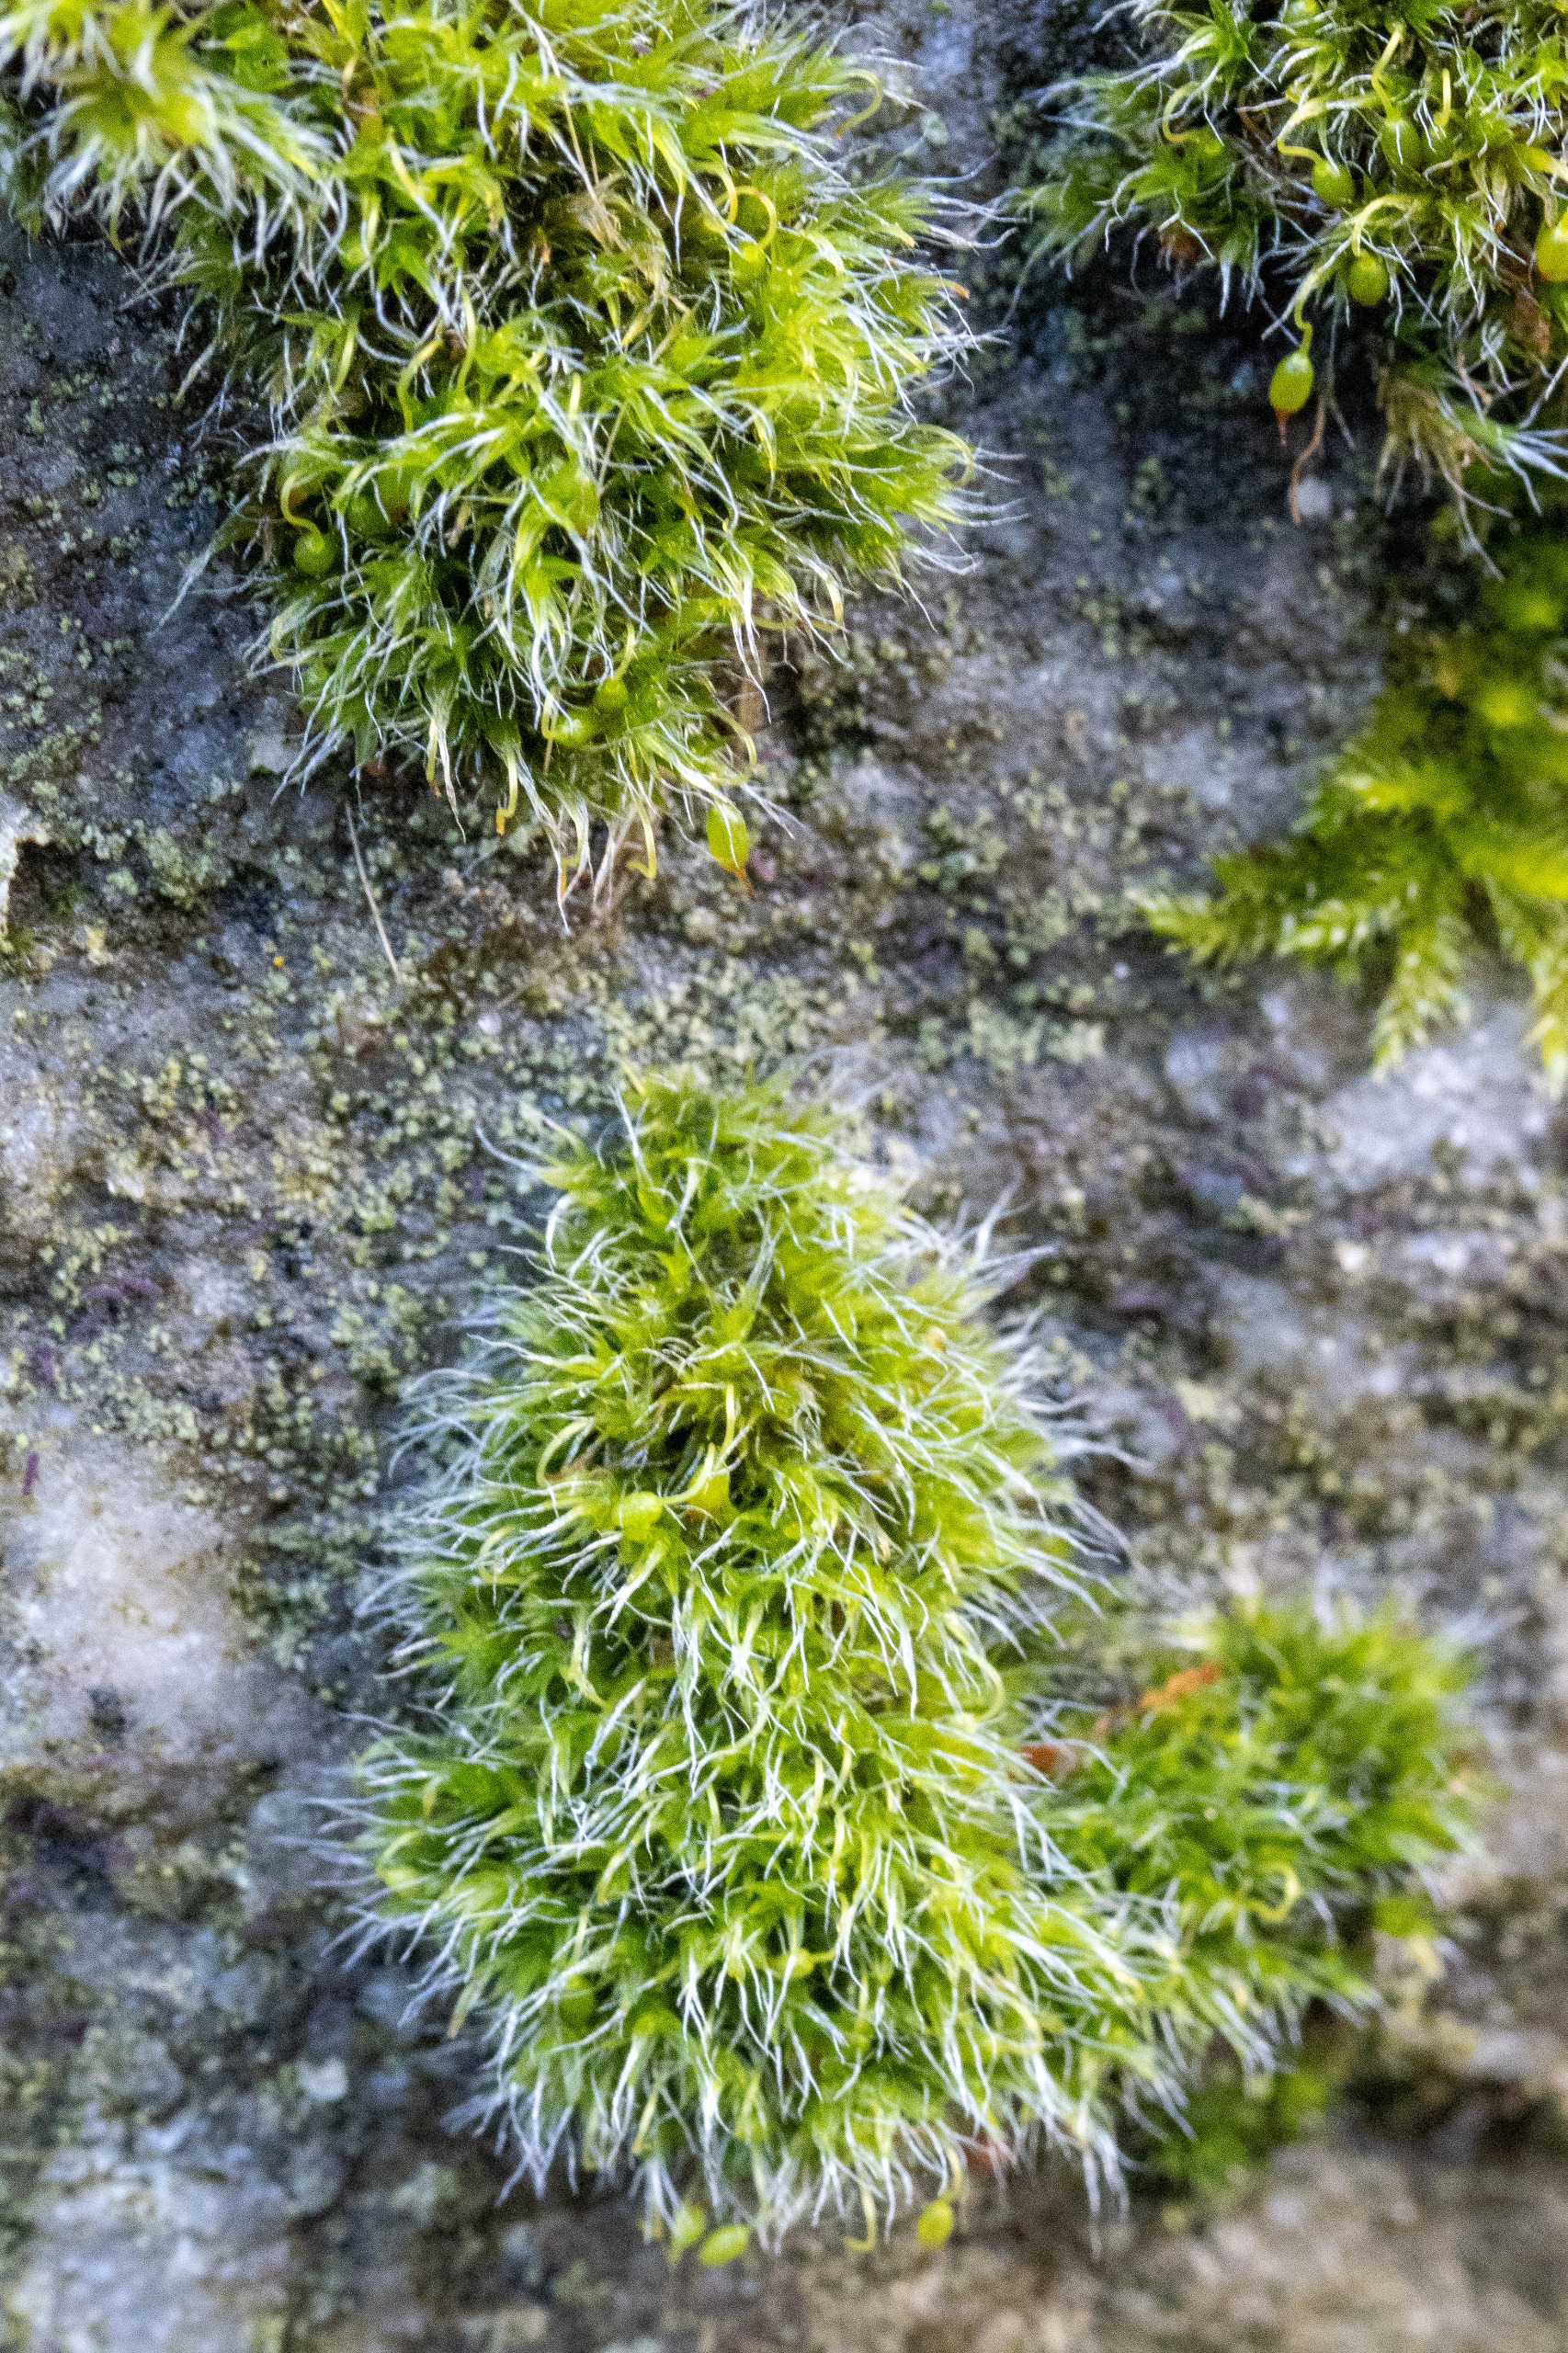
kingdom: Plantae
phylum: Bryophyta
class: Bryopsida
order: Grimmiales
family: Grimmiaceae
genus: Grimmia
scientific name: Grimmia pulvinata
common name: Pude-gråmos
